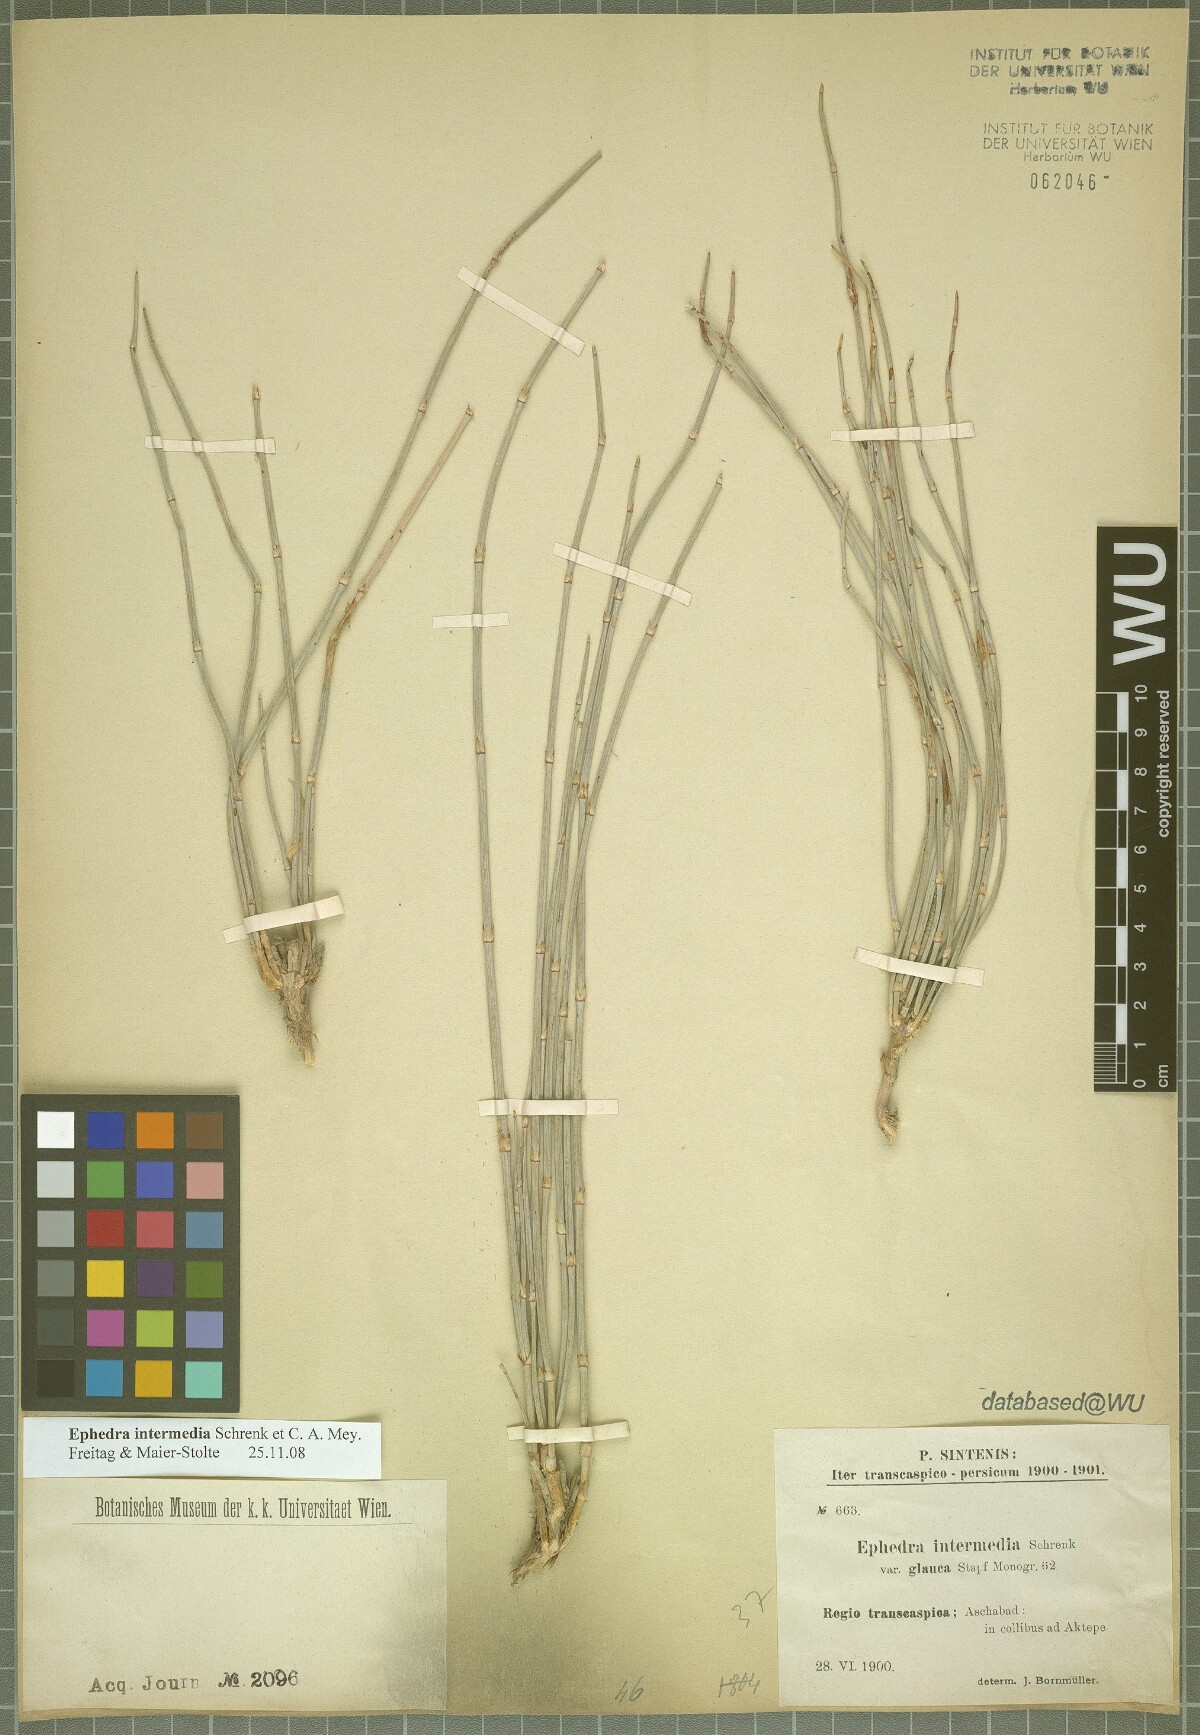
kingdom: Plantae
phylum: Tracheophyta
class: Gnetopsida
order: Ephedrales
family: Ephedraceae
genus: Ephedra
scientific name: Ephedra intermedia
